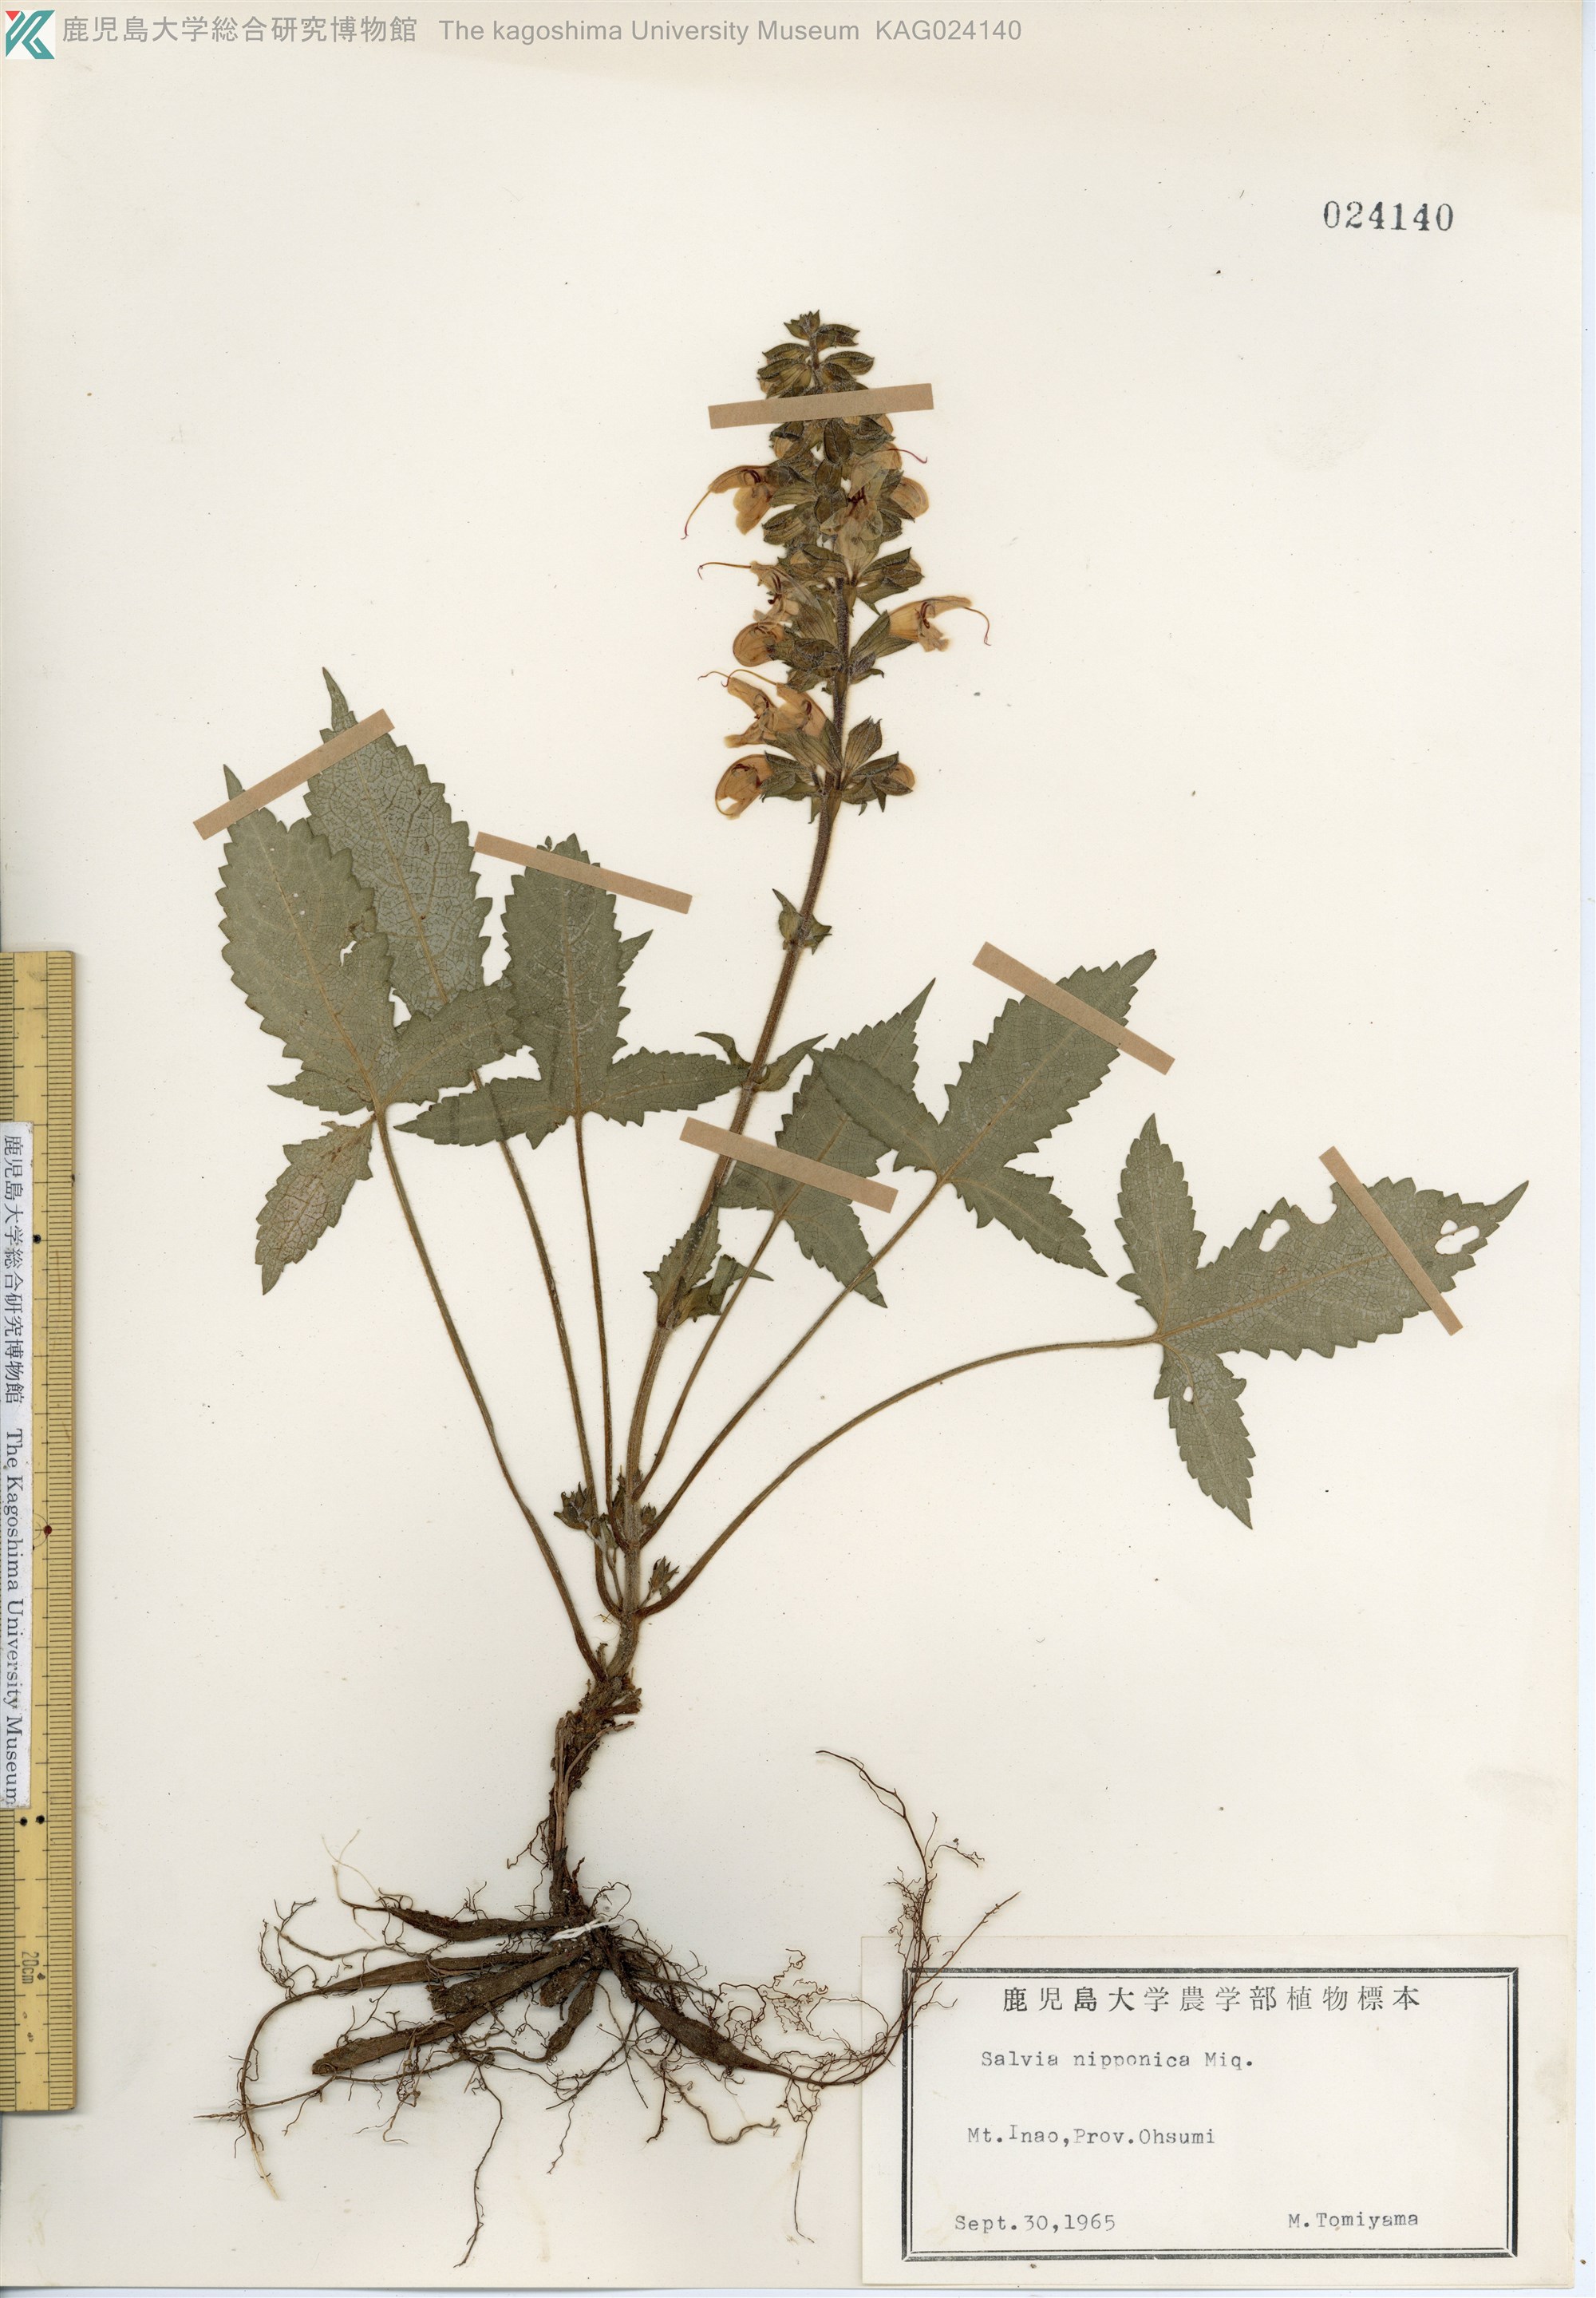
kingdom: Plantae
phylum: Tracheophyta
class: Magnoliopsida
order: Lamiales
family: Lamiaceae
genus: Salvia
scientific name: Salvia nipponica
